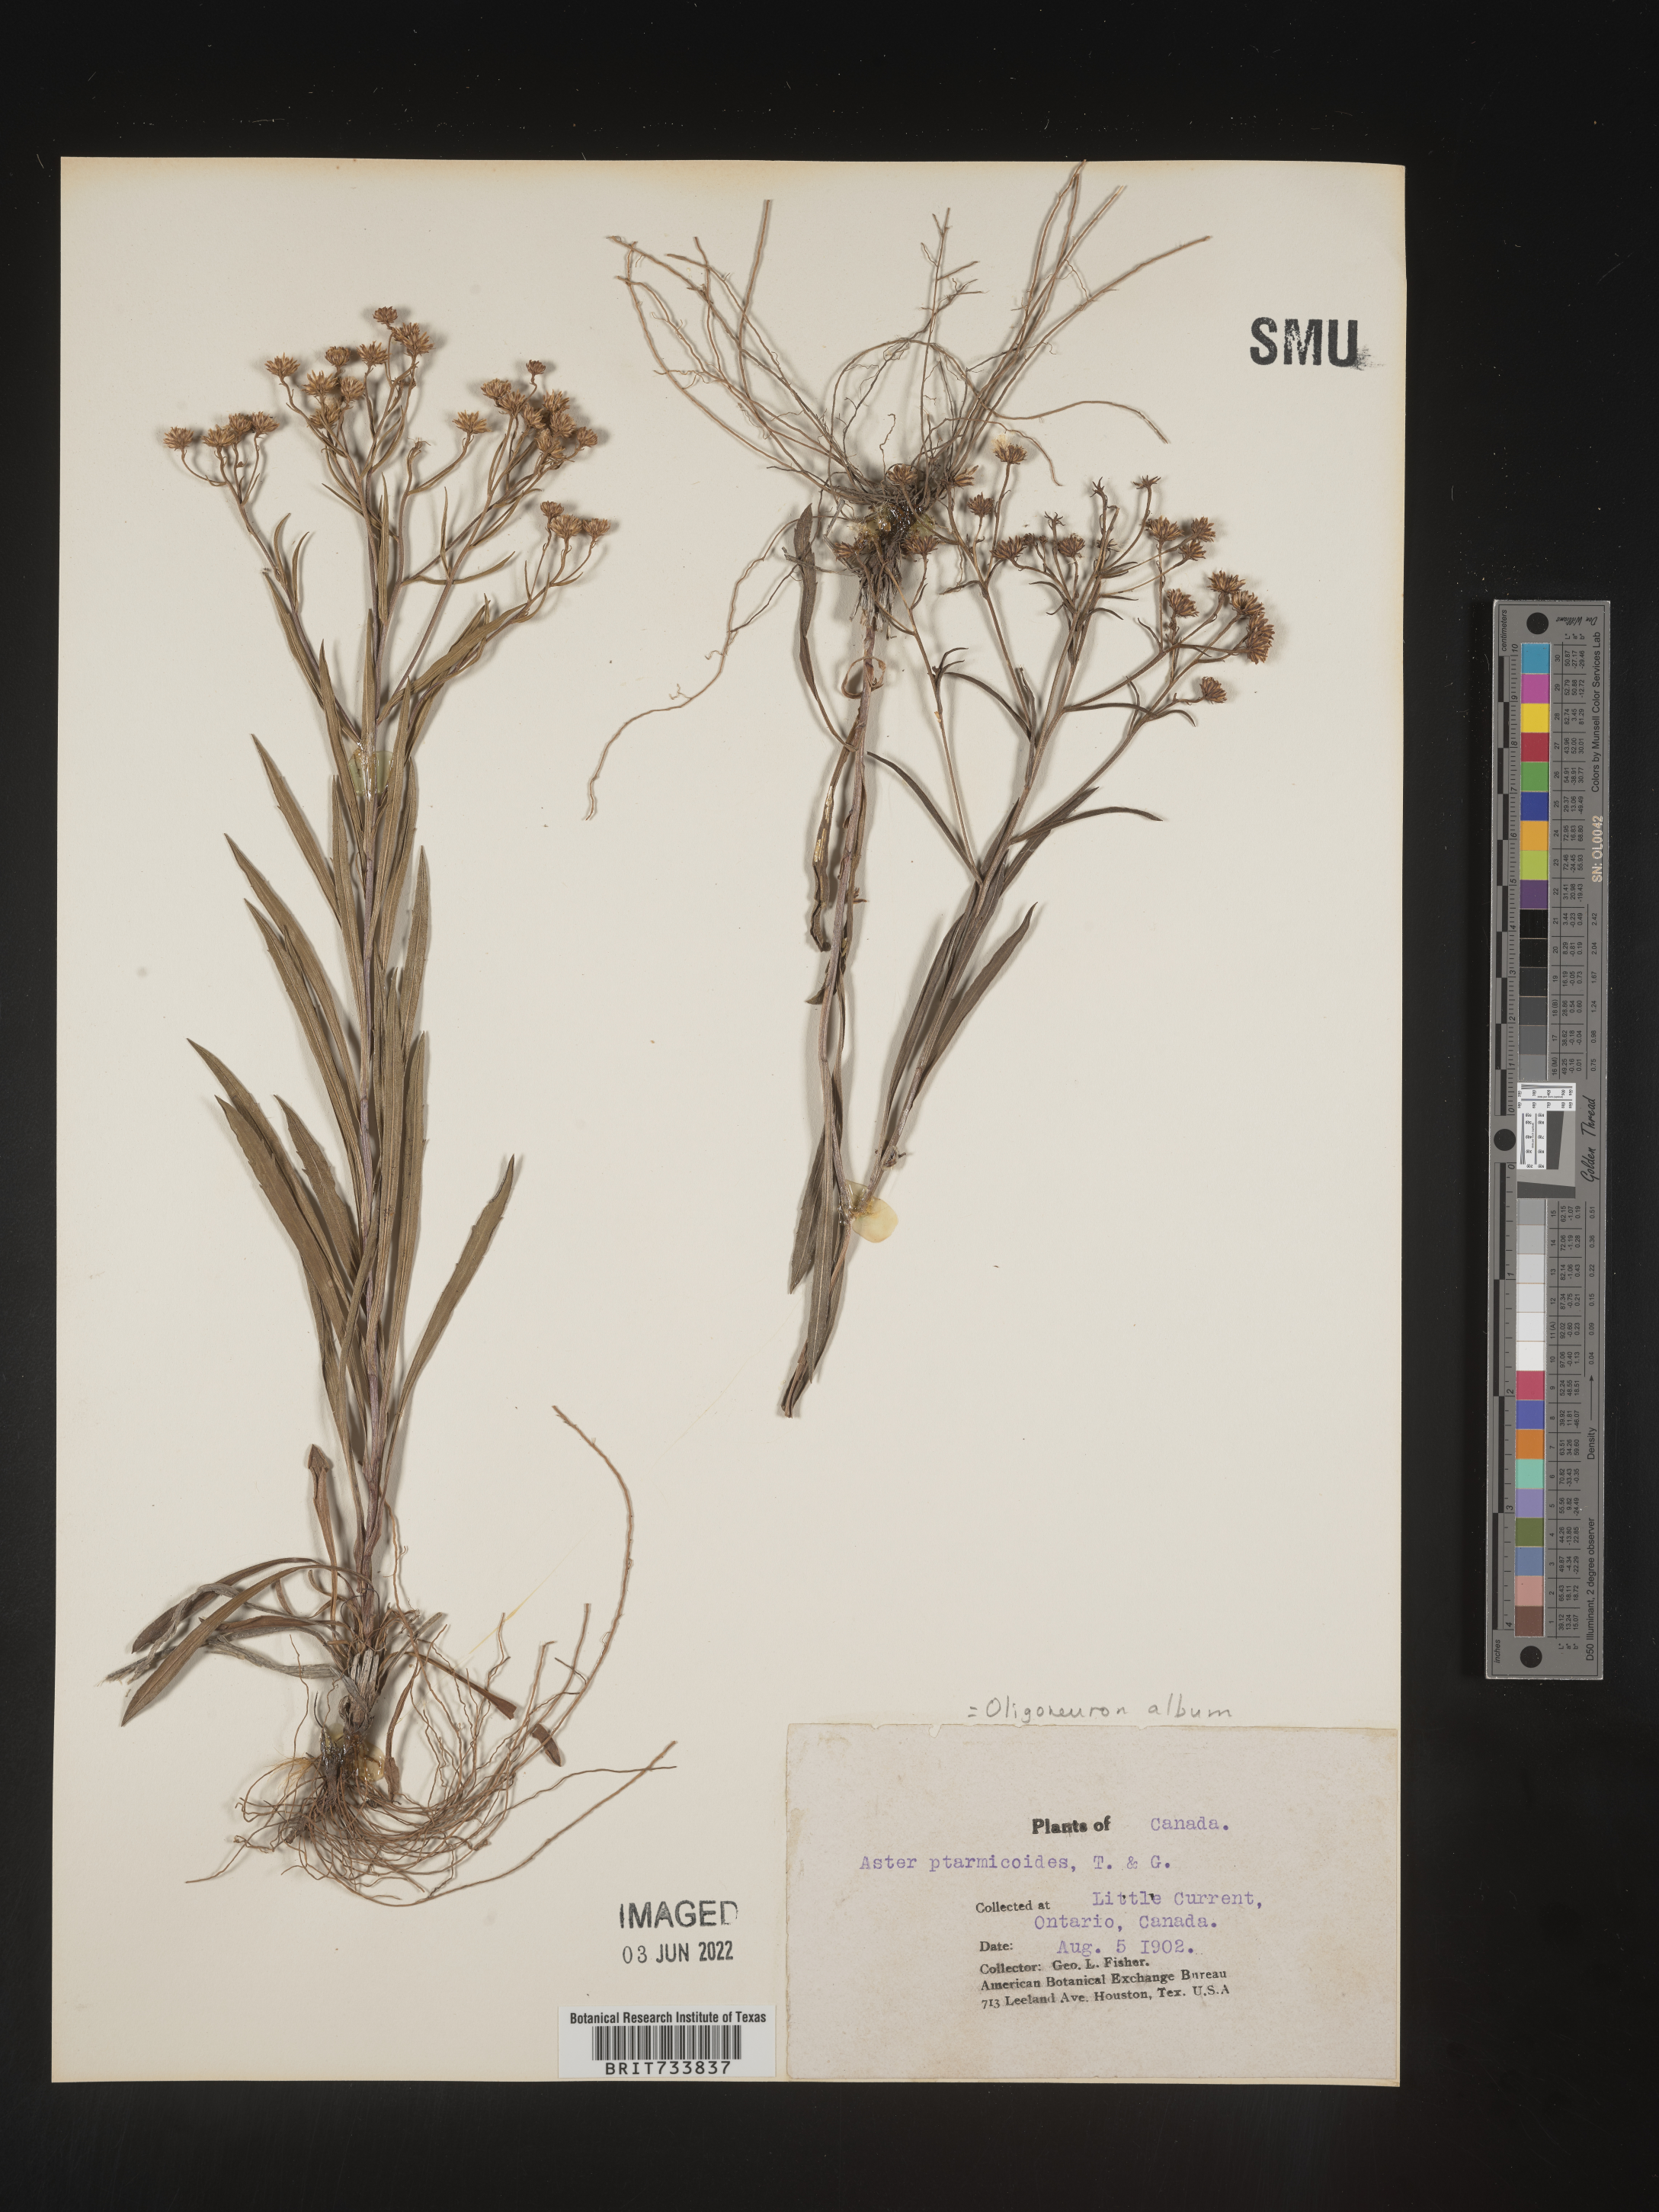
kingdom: Plantae
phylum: Tracheophyta
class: Magnoliopsida
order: Asterales
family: Asteraceae
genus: Solidago
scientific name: Solidago ptarmicoides
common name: White flat-top goldenrod
